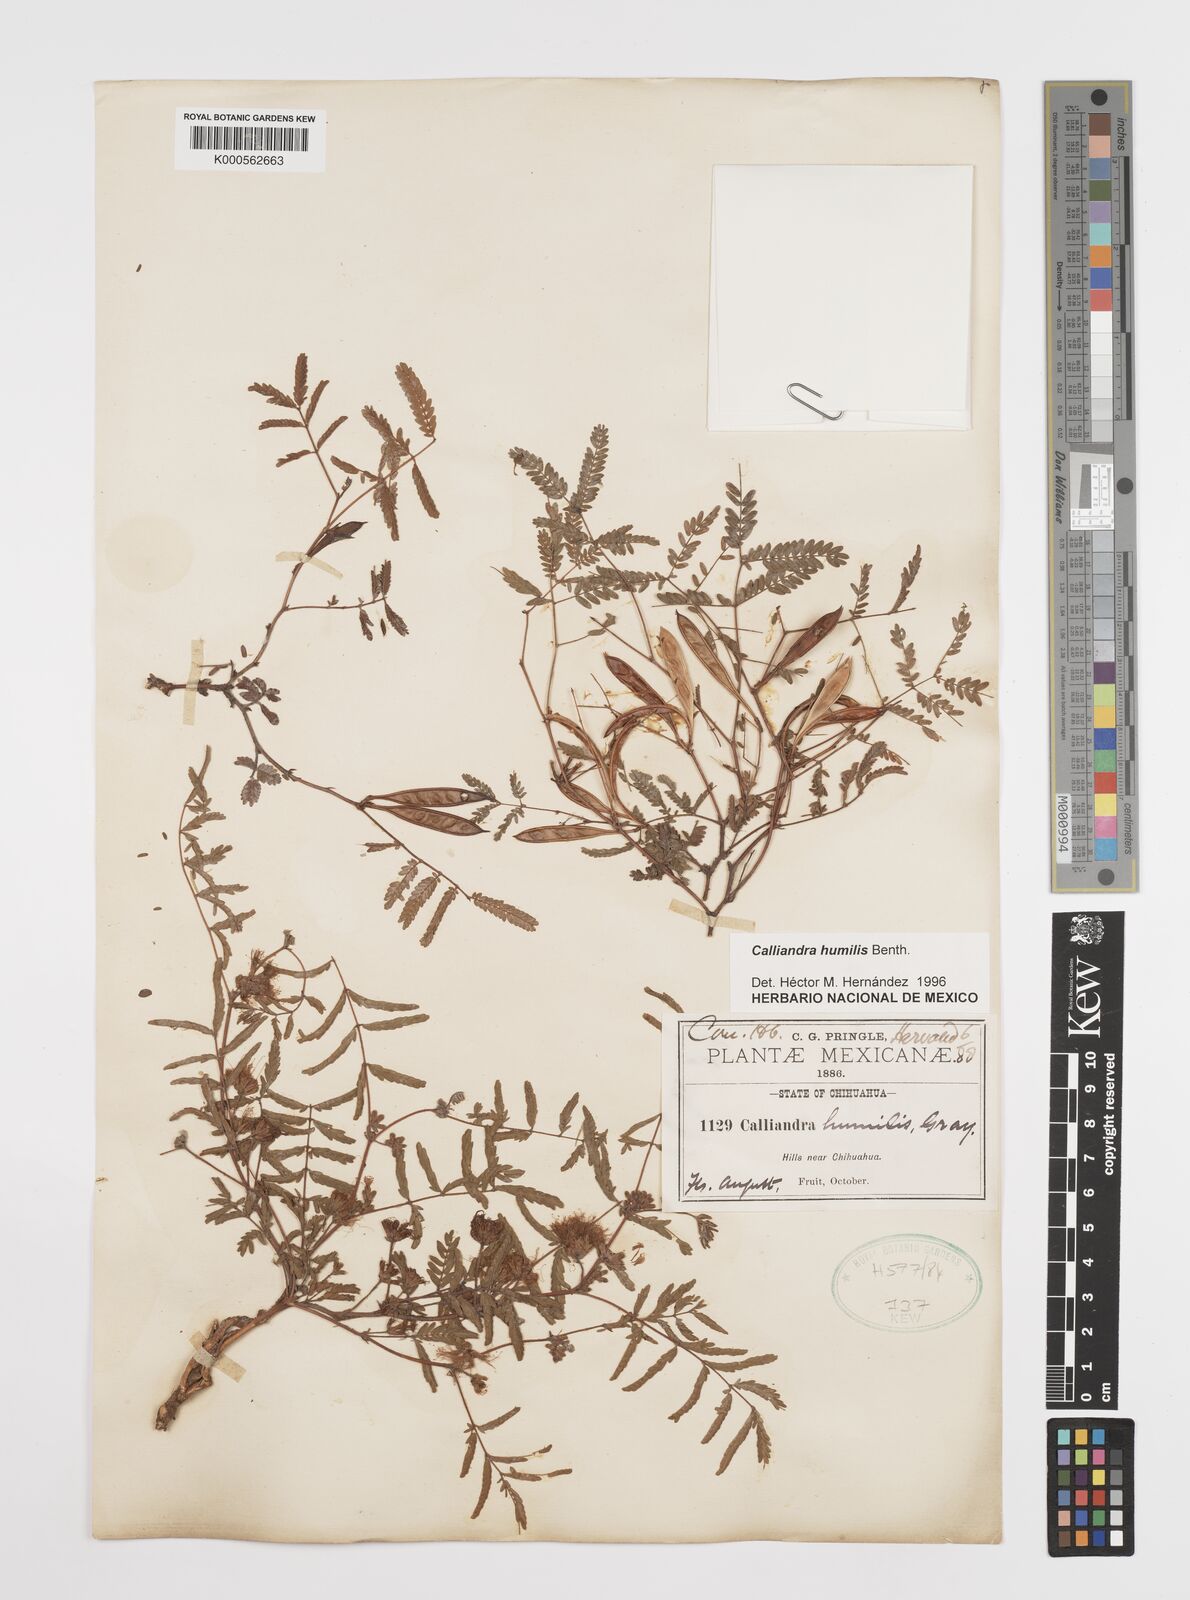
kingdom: Plantae
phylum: Tracheophyta
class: Magnoliopsida
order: Fabales
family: Fabaceae
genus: Calliandra
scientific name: Calliandra humilis
